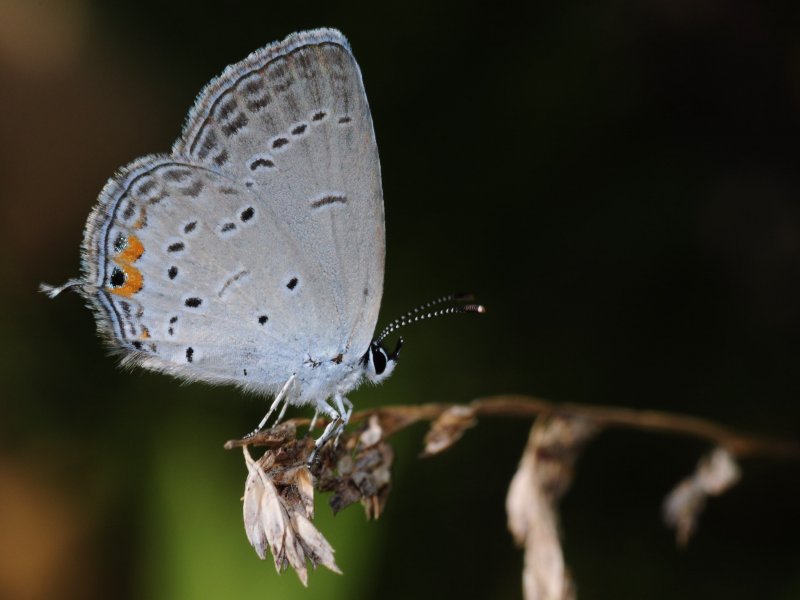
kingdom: Animalia
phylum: Arthropoda
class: Insecta
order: Lepidoptera
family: Lycaenidae
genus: Elkalyce
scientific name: Elkalyce comyntas
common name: Eastern Tailed-Blue
